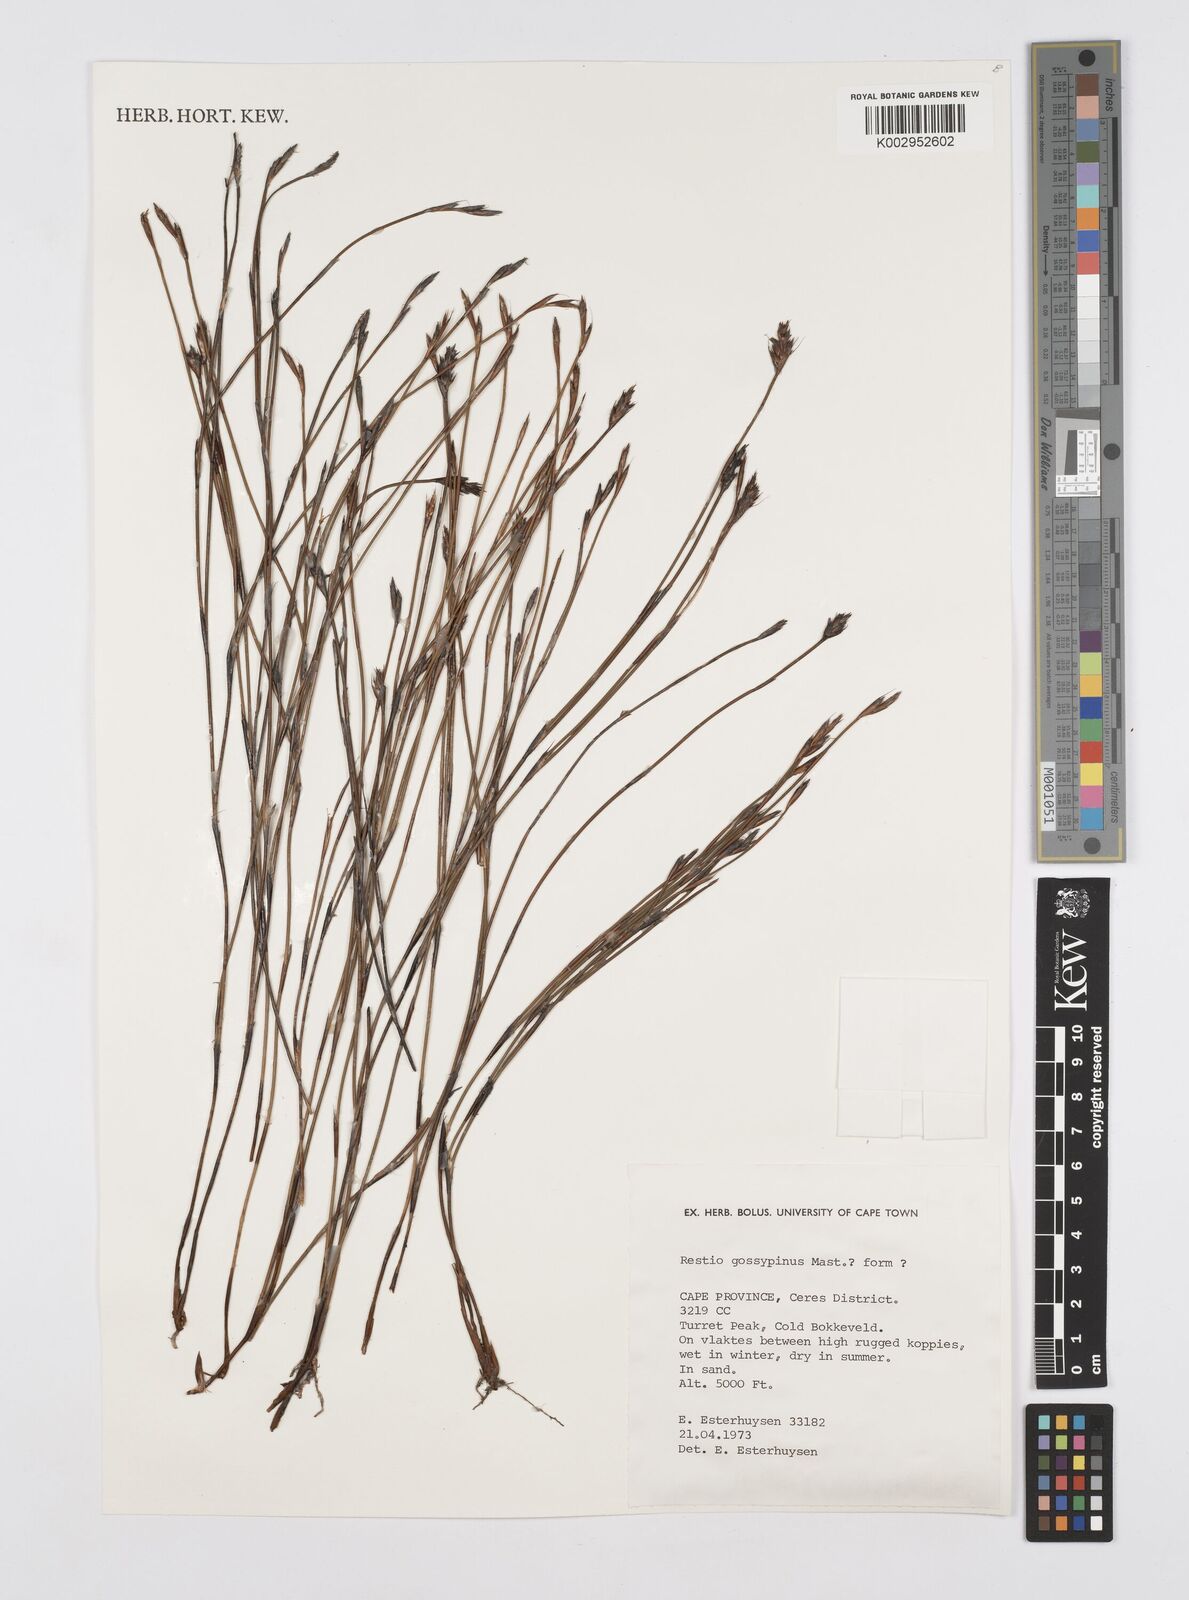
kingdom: Plantae
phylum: Tracheophyta
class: Liliopsida
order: Poales
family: Restionaceae
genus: Restio
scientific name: Restio gossypinus
